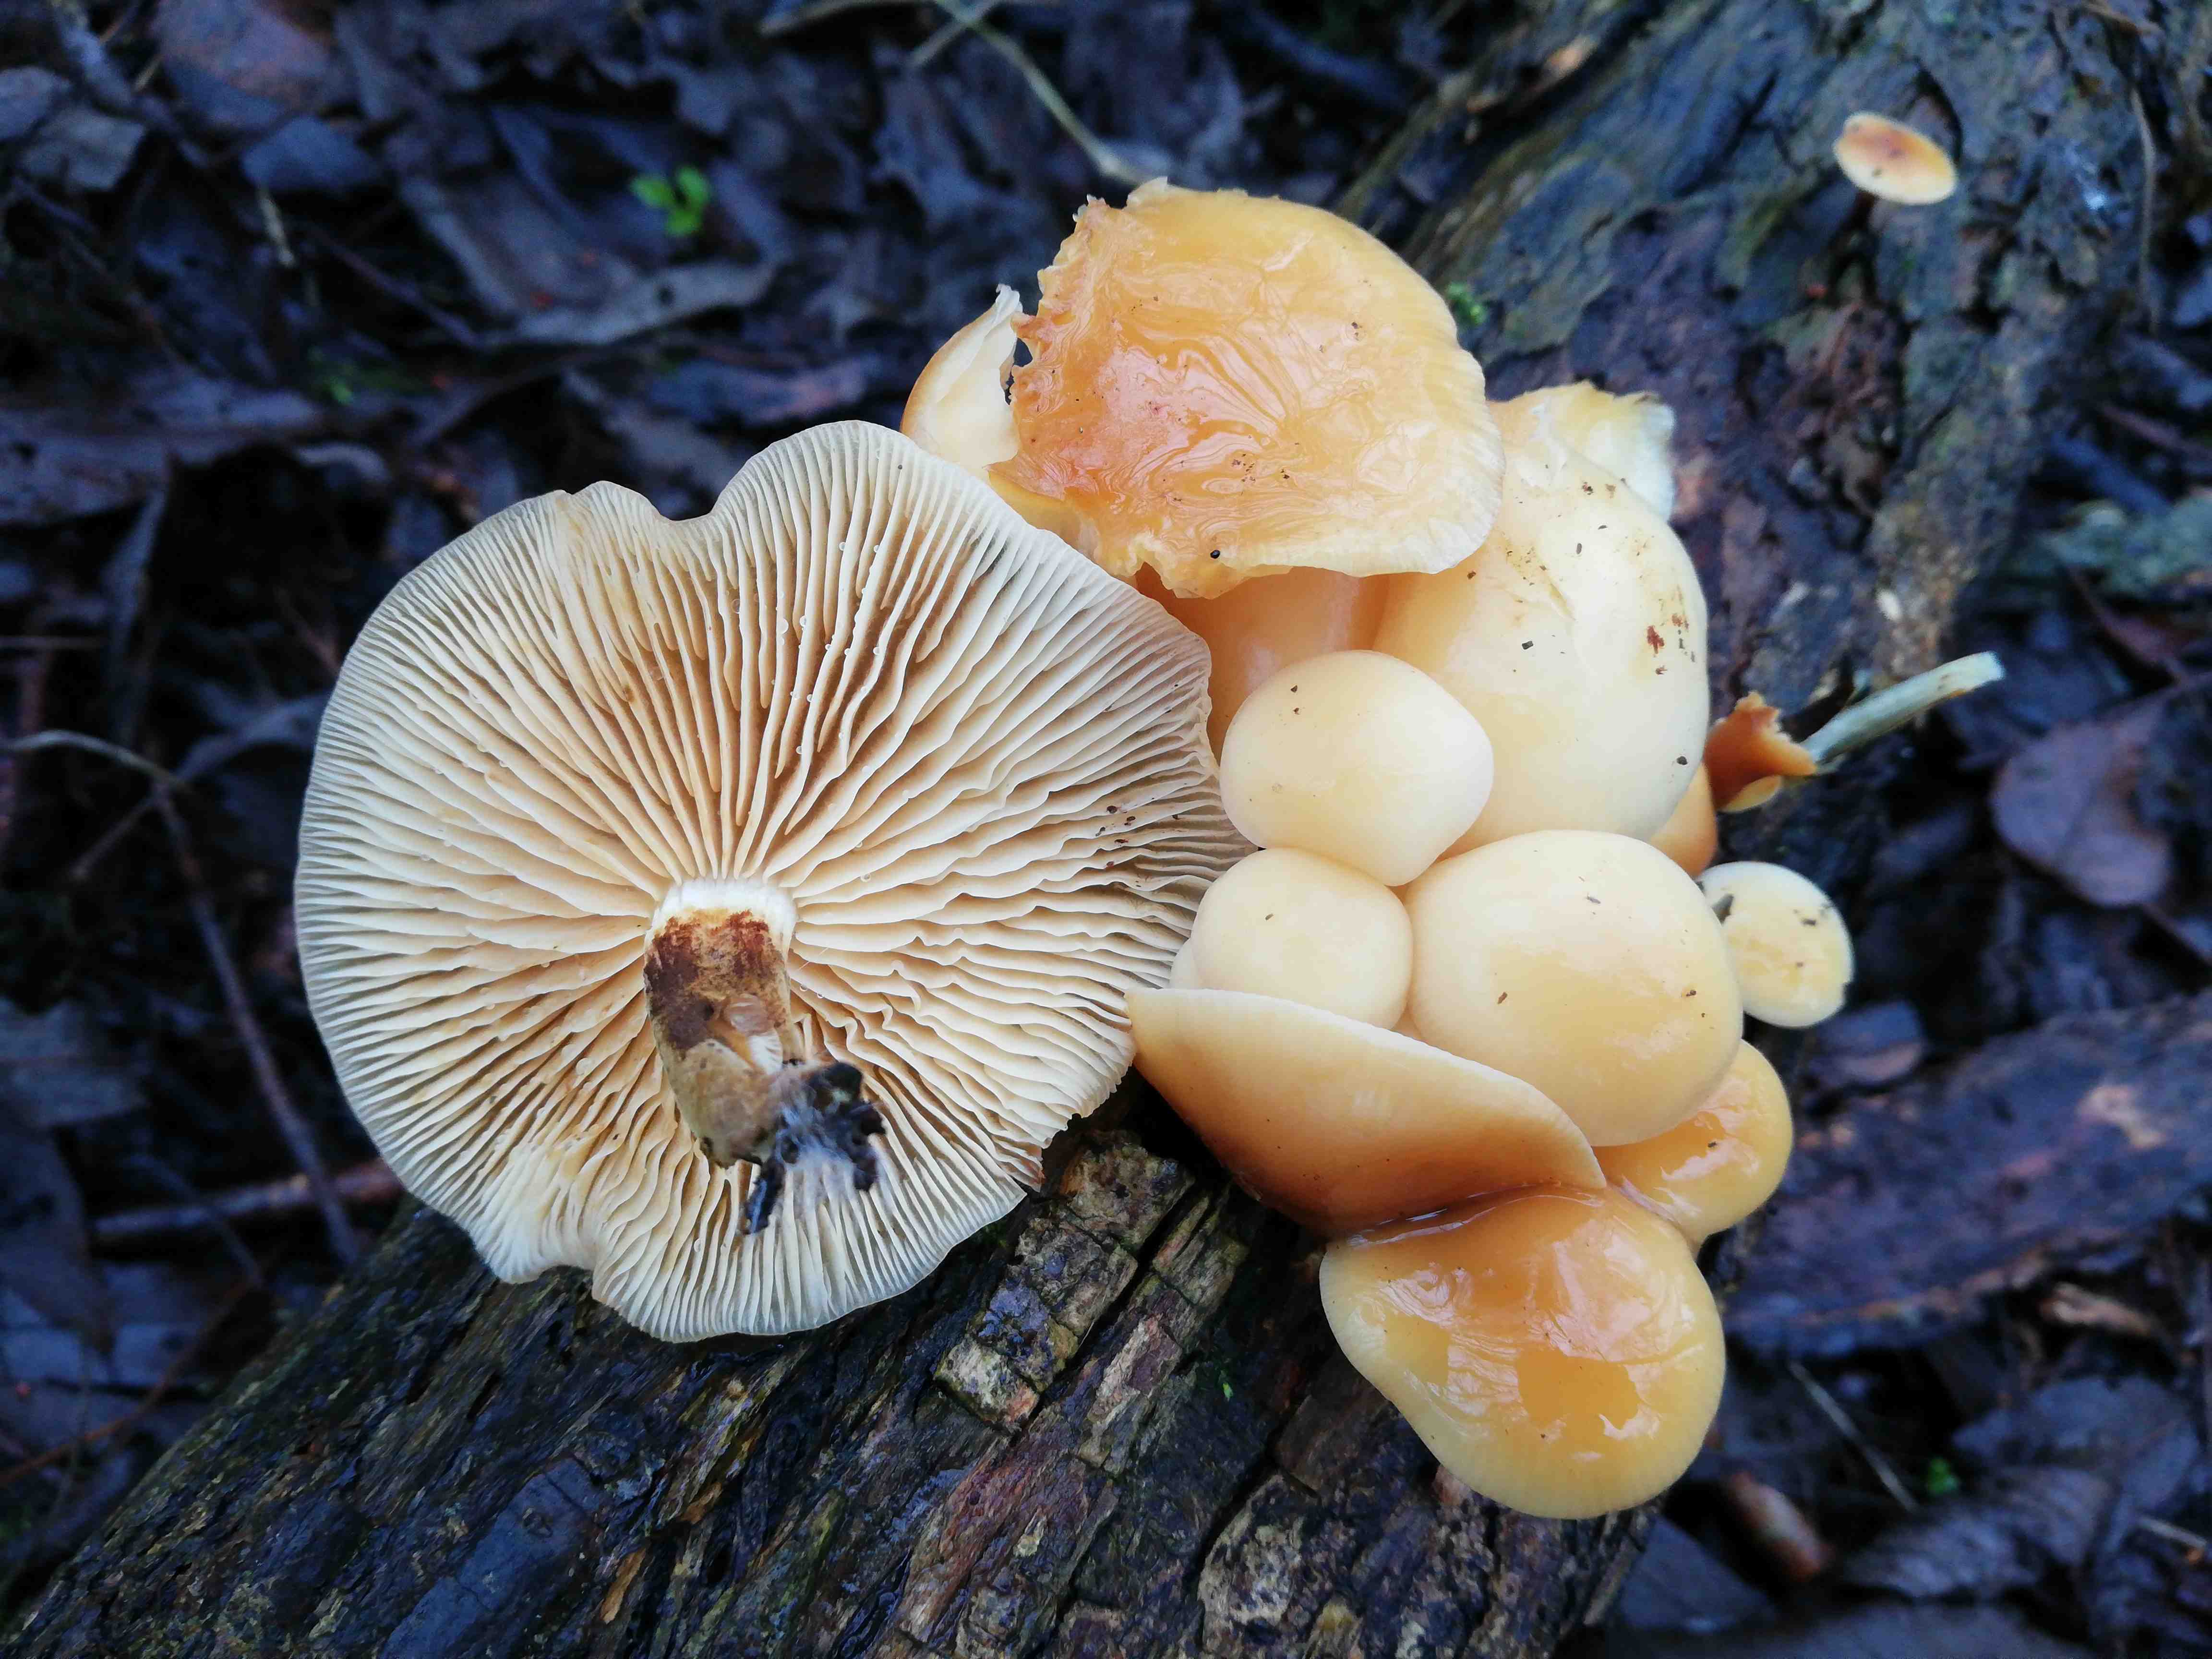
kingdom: Fungi
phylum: Basidiomycota
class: Agaricomycetes
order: Agaricales
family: Physalacriaceae
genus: Flammulina
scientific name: Flammulina
